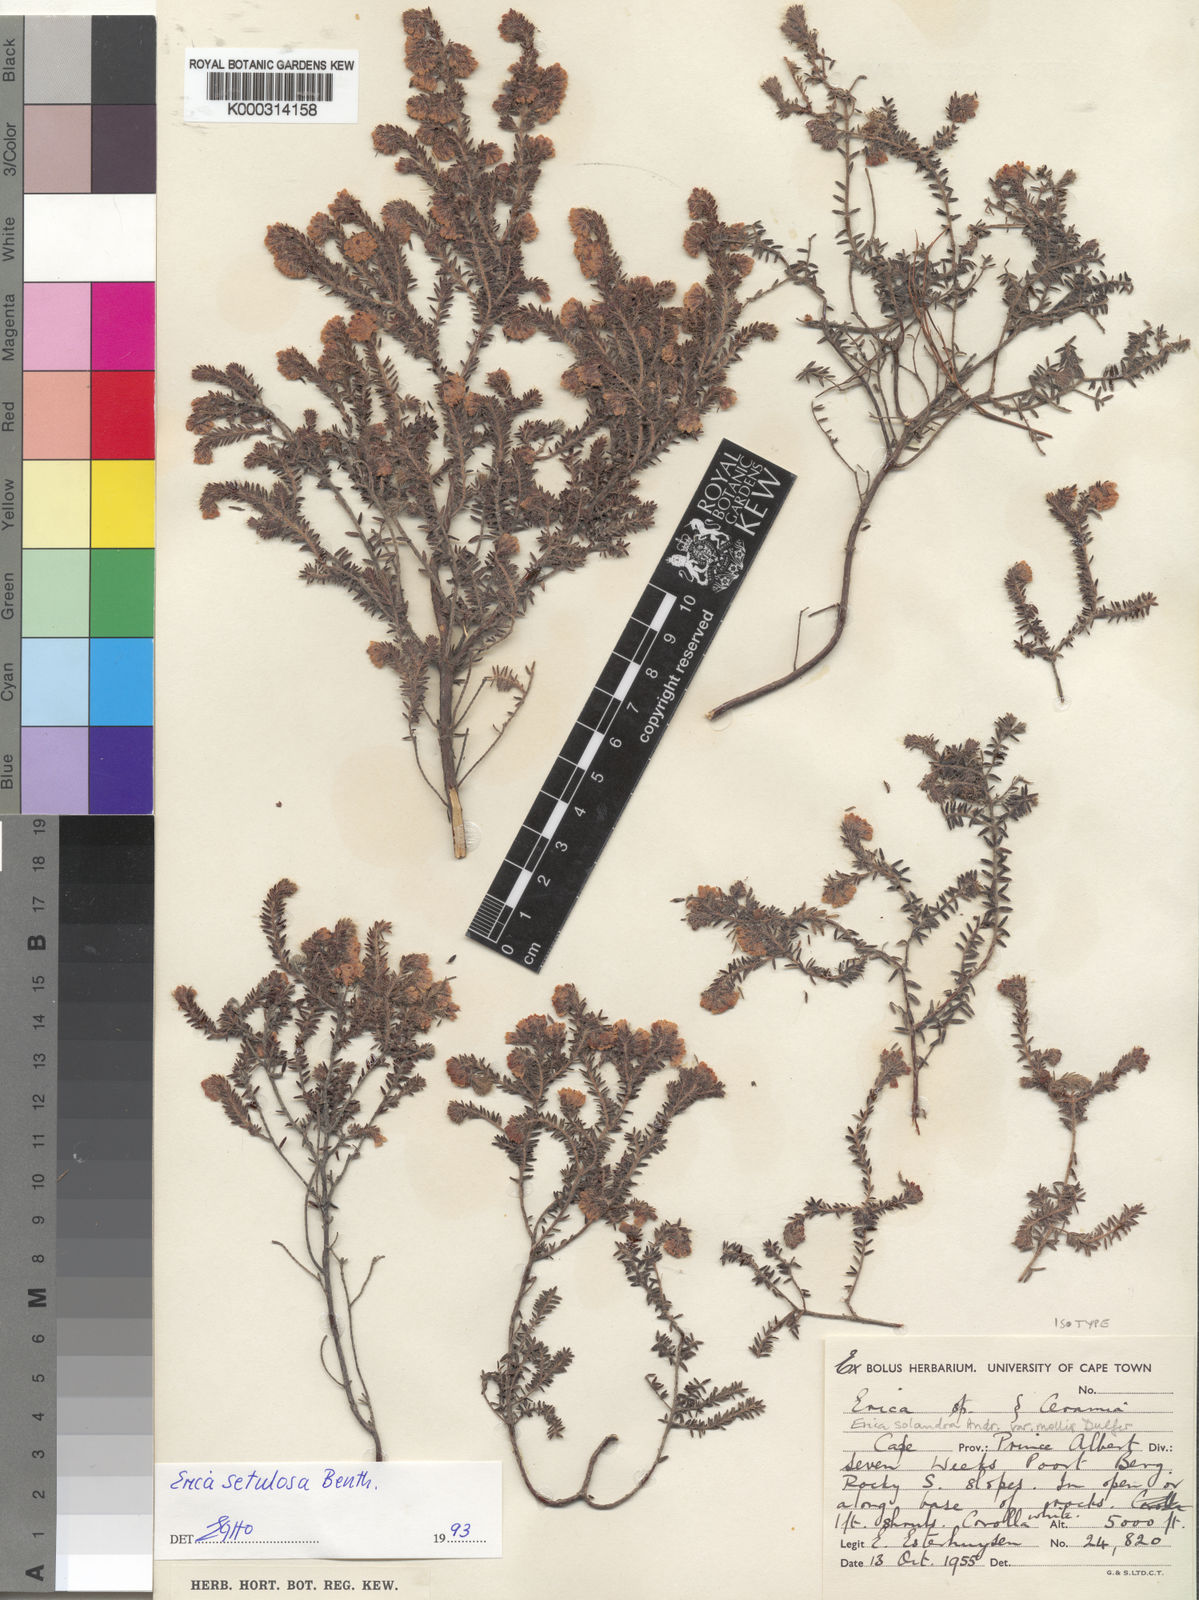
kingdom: Plantae
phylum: Tracheophyta
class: Magnoliopsida
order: Ericales
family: Ericaceae
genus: Erica
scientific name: Erica setulosa
